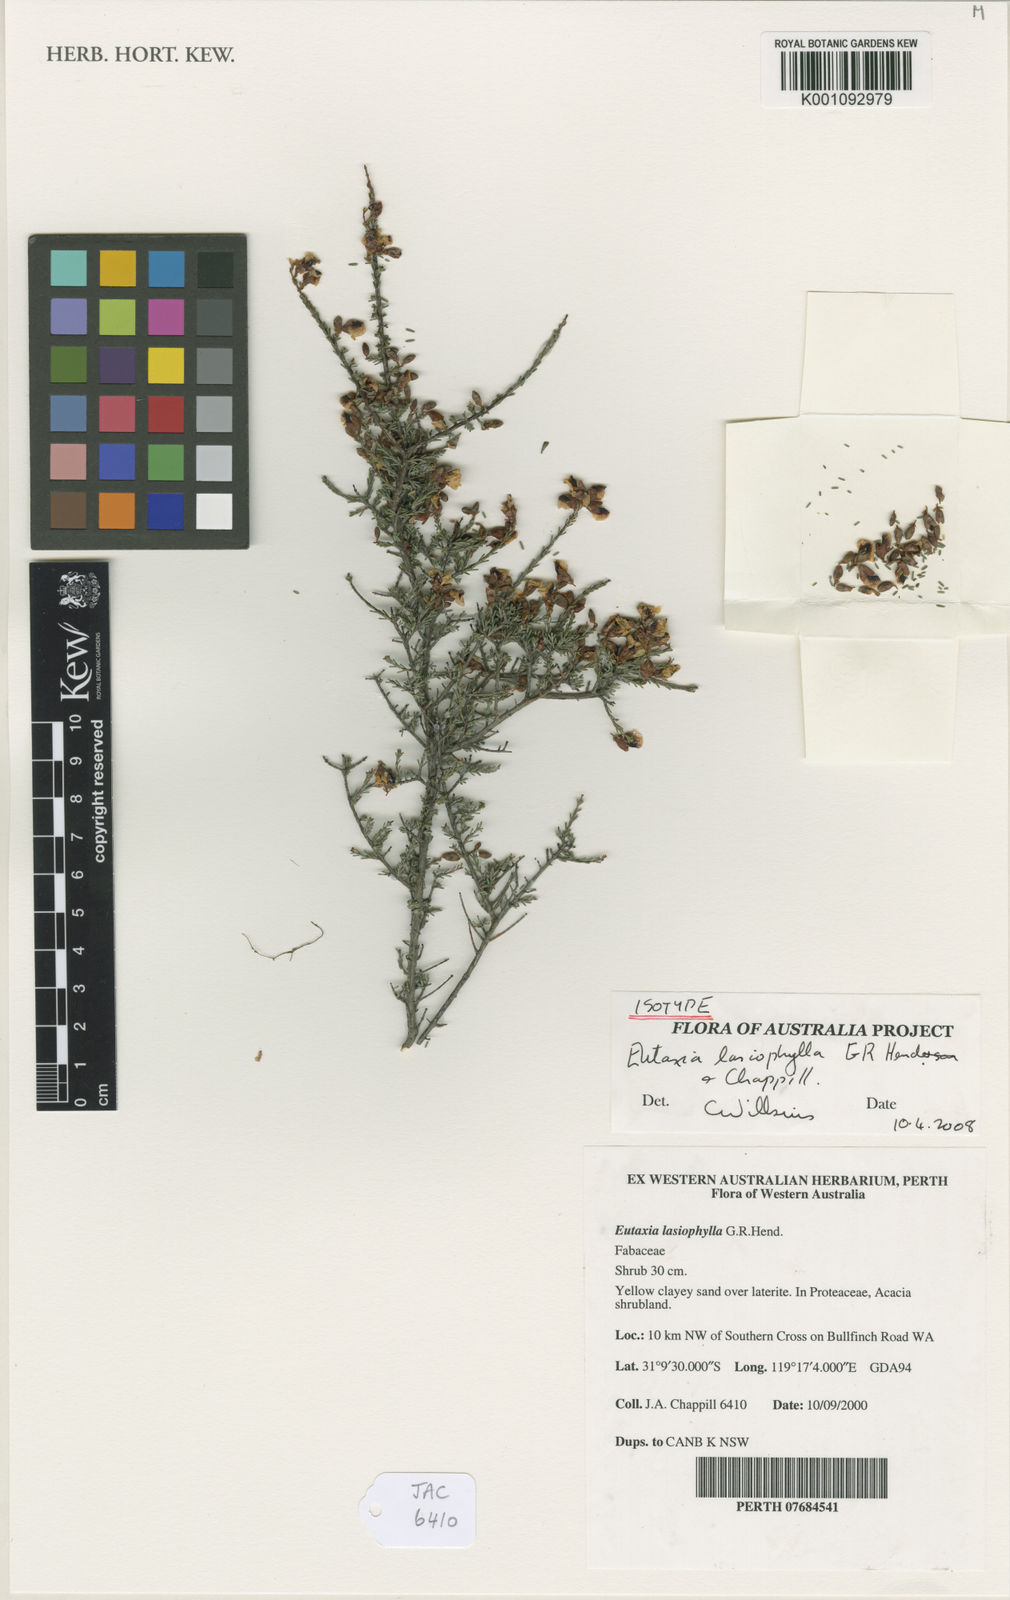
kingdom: Plantae
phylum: Tracheophyta
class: Magnoliopsida
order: Fabales
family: Fabaceae
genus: Eutaxia
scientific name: Eutaxia lasiophylla
